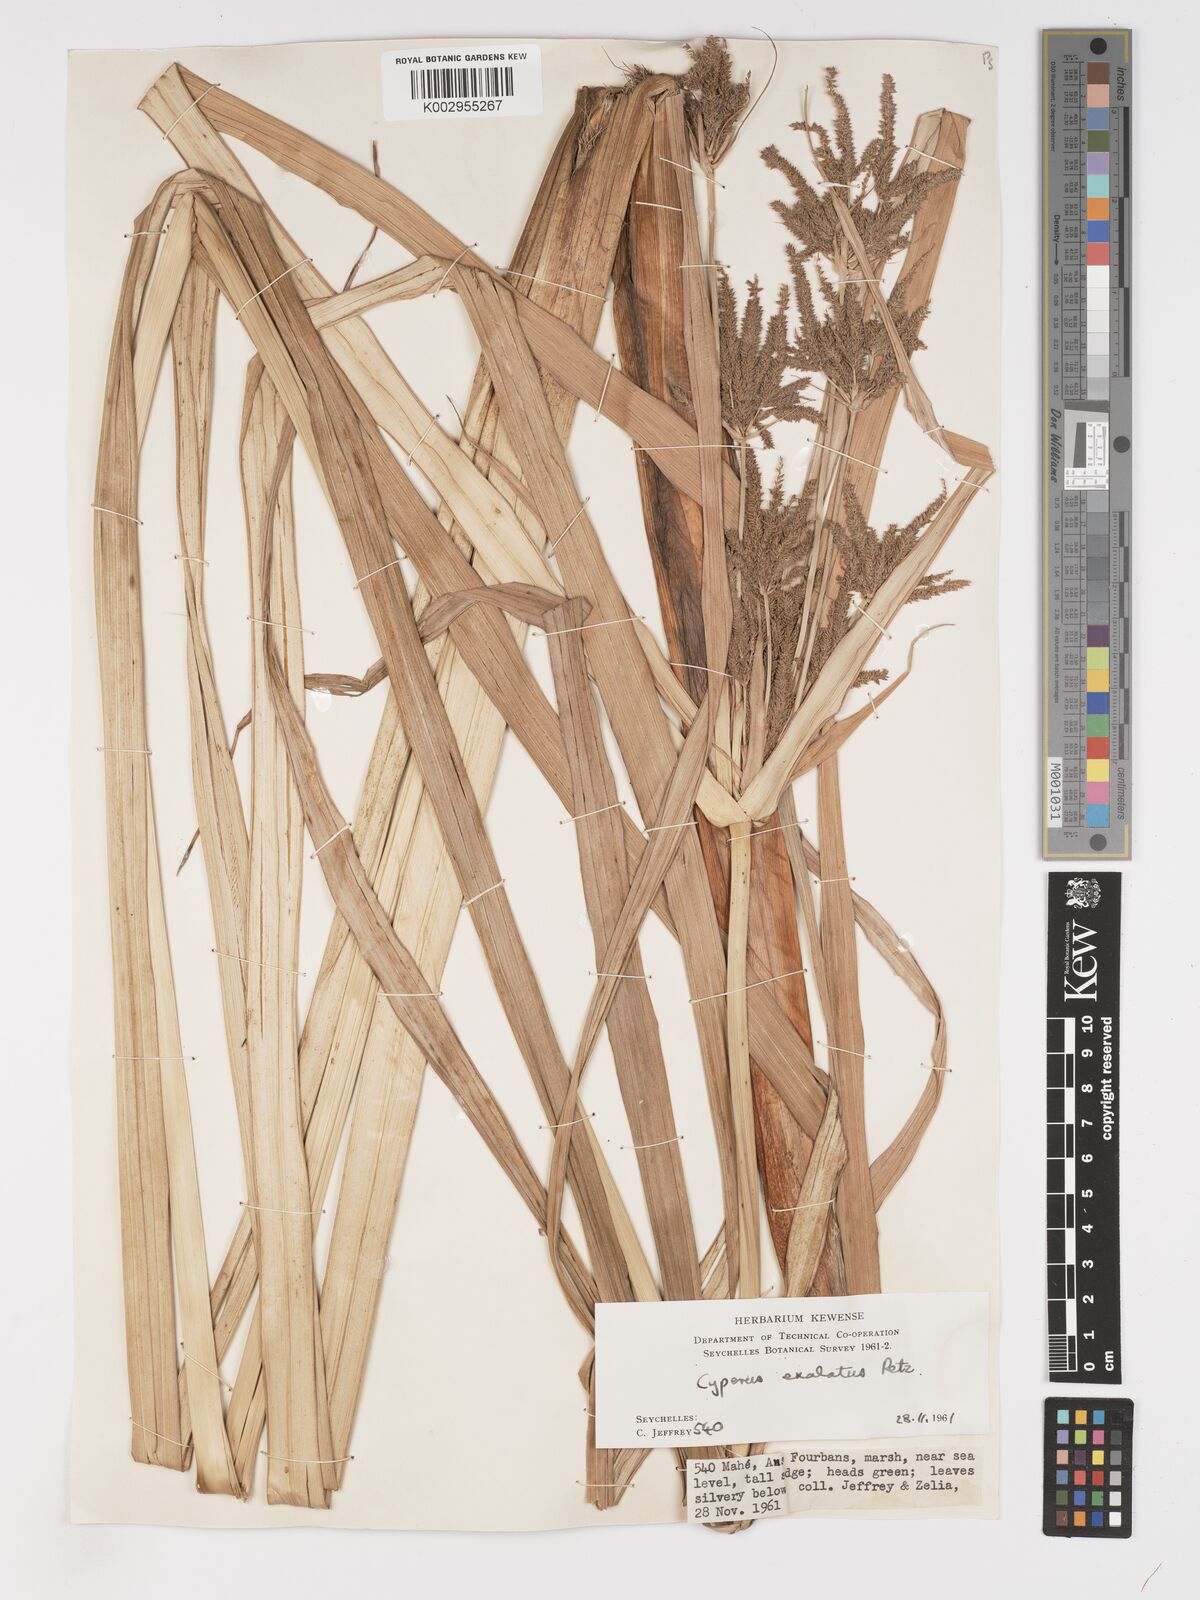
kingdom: Plantae
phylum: Tracheophyta
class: Liliopsida
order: Poales
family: Cyperaceae
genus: Cyperus
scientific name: Cyperus exaltatus
